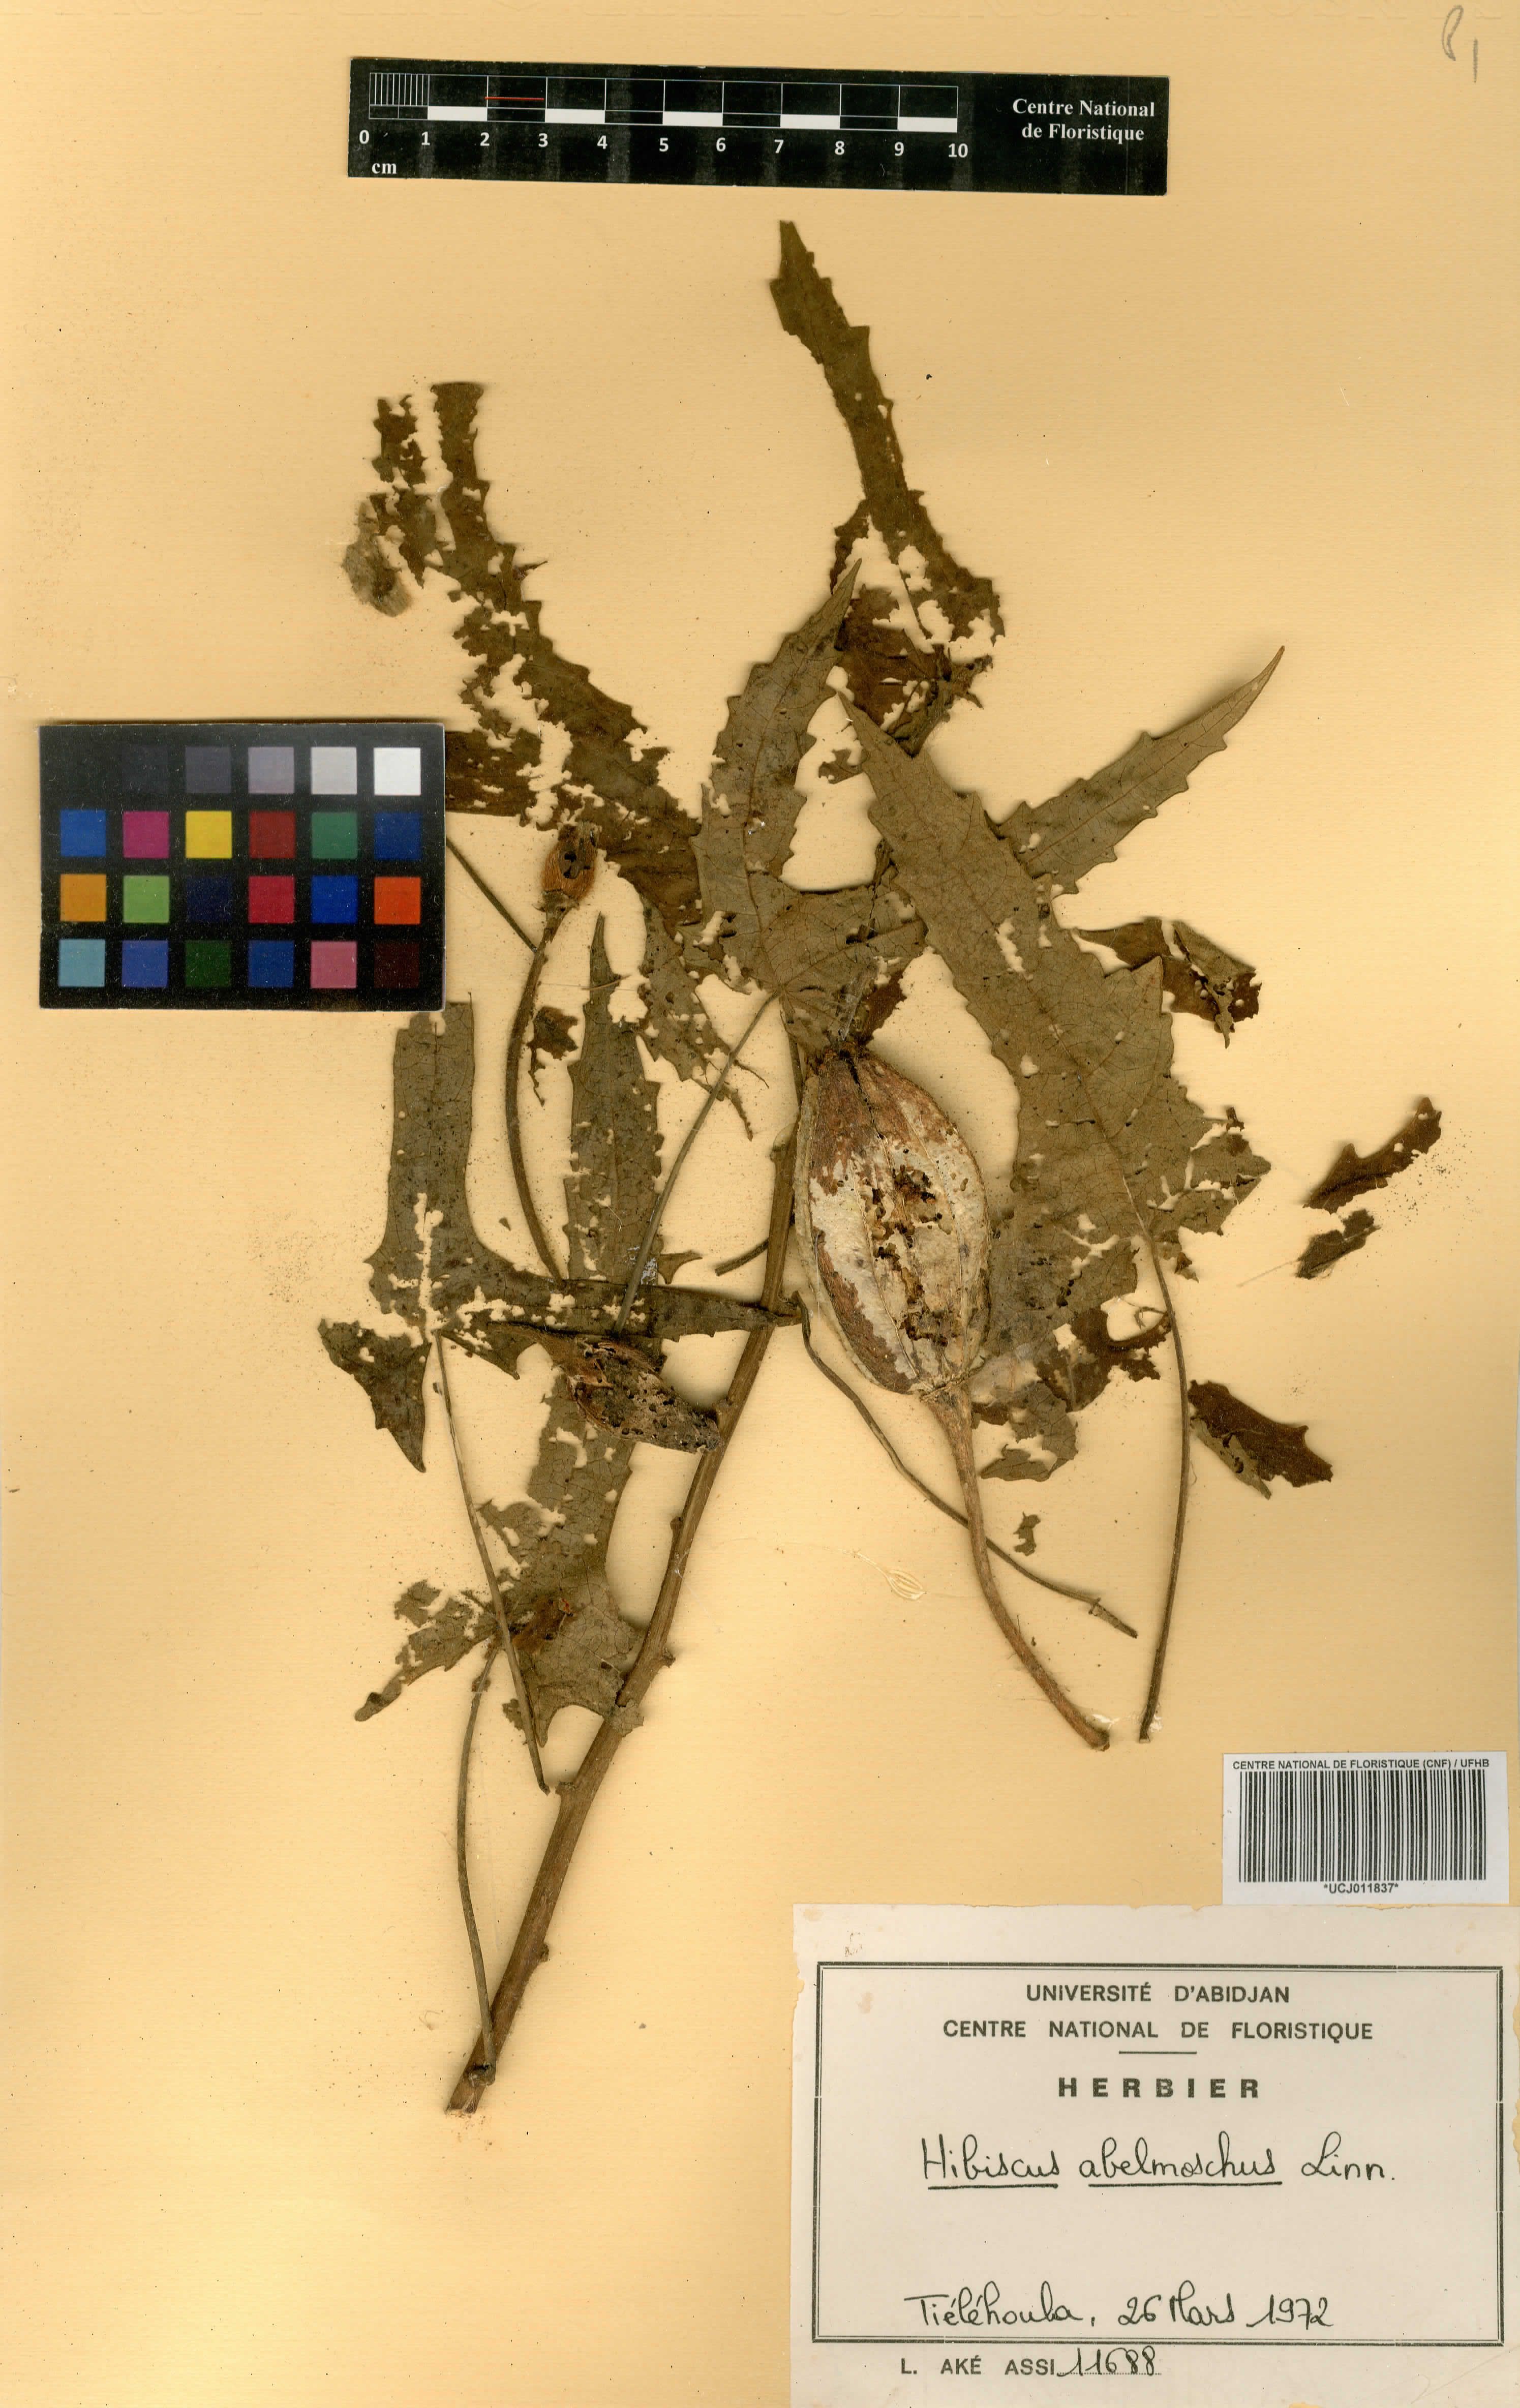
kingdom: Plantae
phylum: Tracheophyta
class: Magnoliopsida
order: Malvales
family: Malvaceae
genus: Abelmoschus
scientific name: Abelmoschus moschatus
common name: Musk okra
